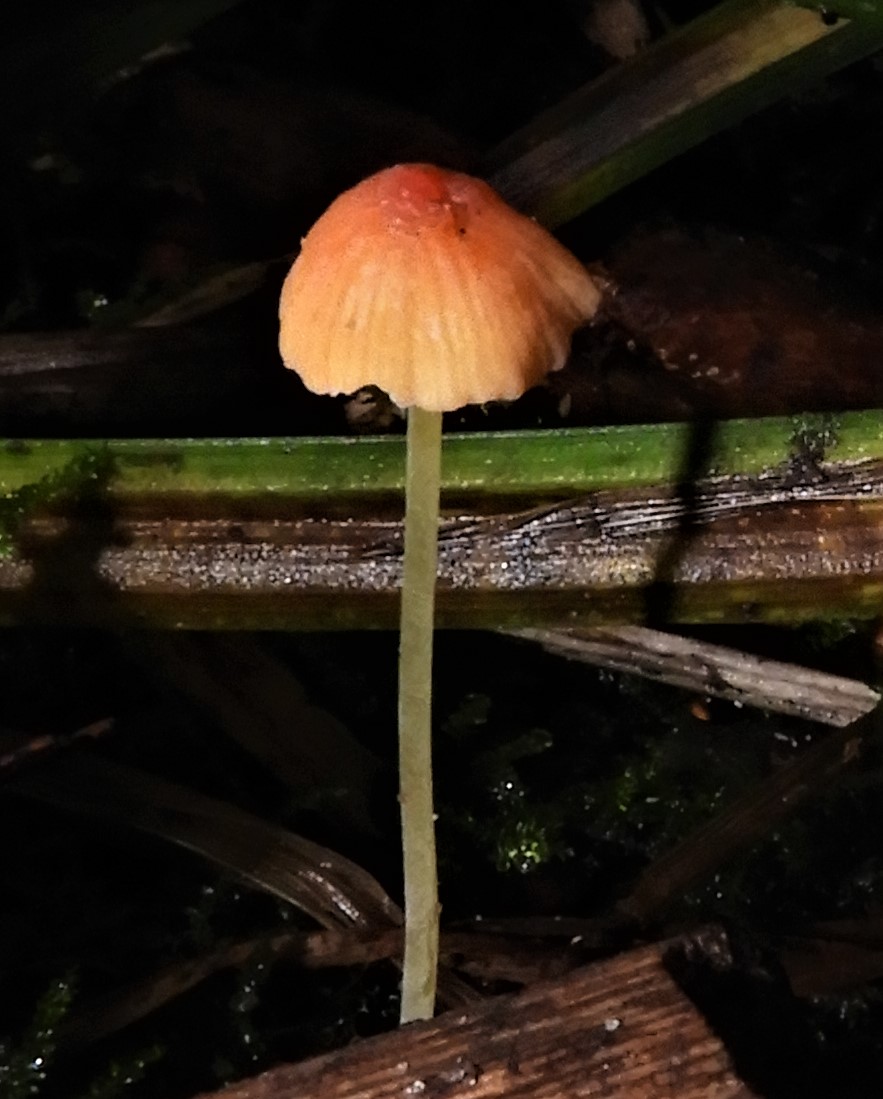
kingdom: Fungi
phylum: Basidiomycota
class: Agaricomycetes
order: Agaricales
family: Mycenaceae
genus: Mycena
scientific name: Mycena acicula
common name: orange huesvamp
